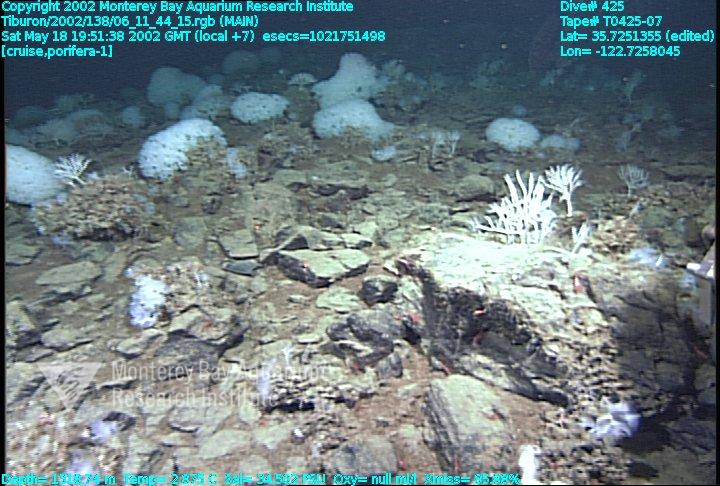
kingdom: Animalia
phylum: Porifera
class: Hexactinellida
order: Sceptrulophora
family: Farreidae
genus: Farrea
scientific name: Farrea occa
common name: Reversed glass sponge
